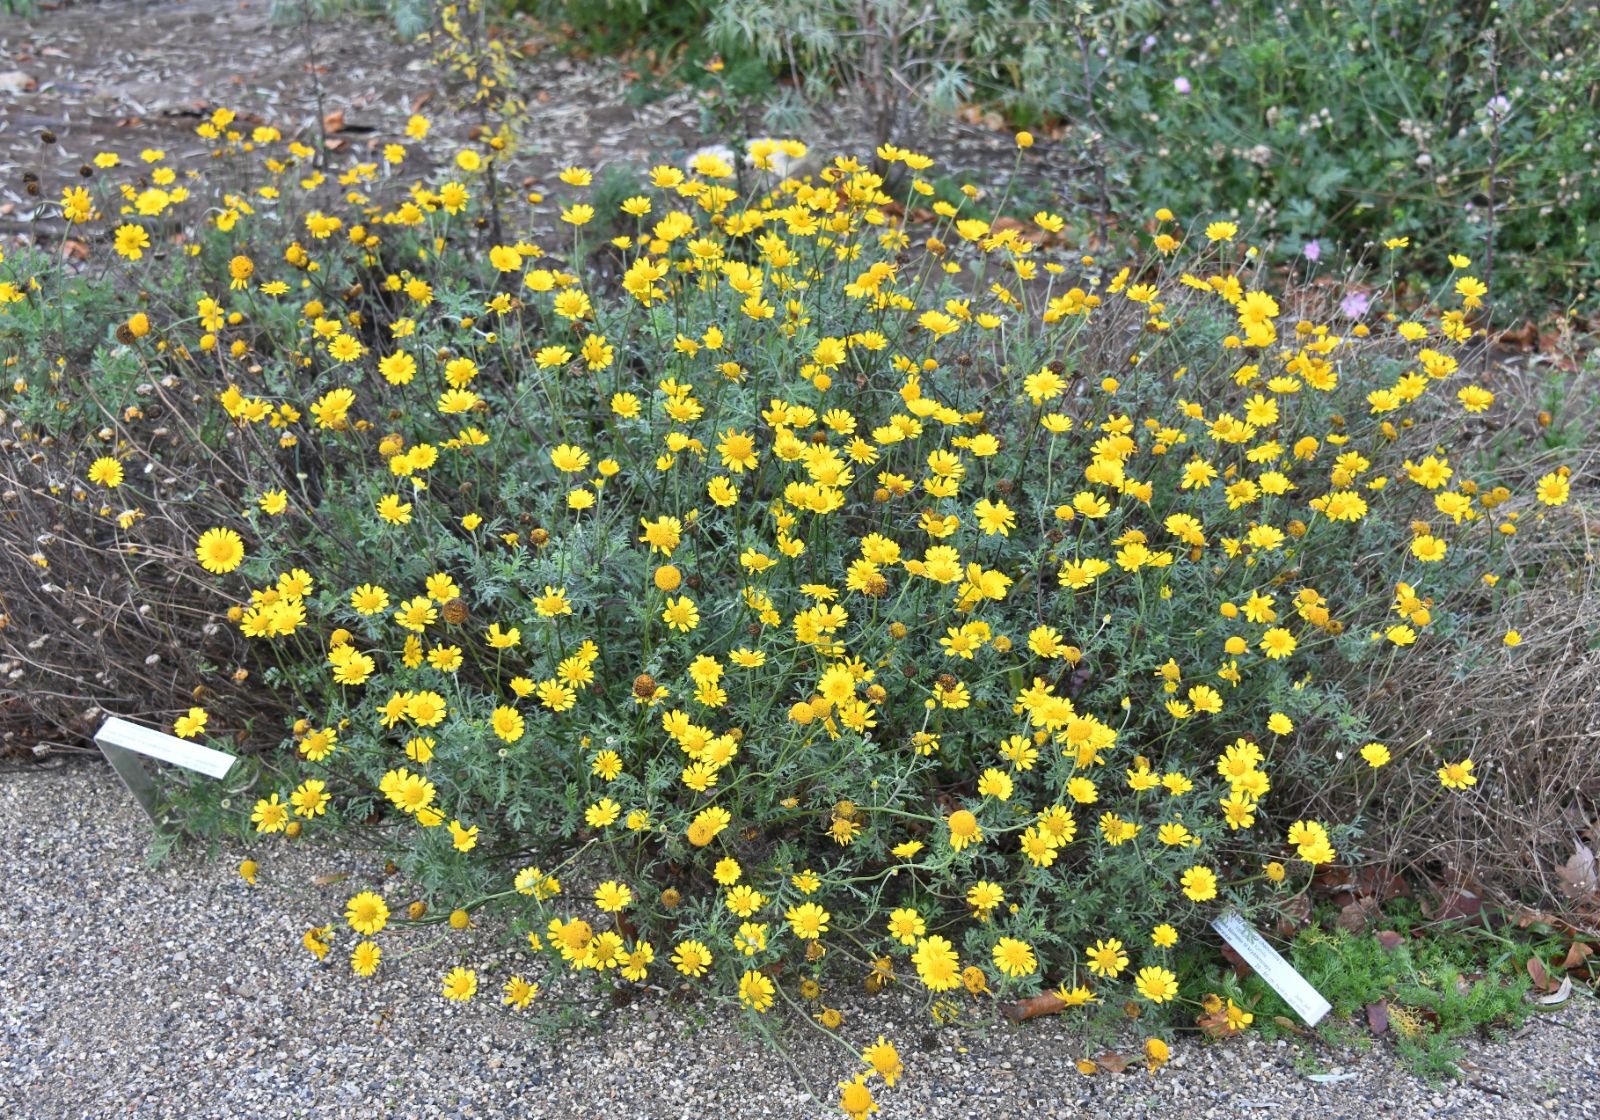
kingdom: Plantae
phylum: Tracheophyta
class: Magnoliopsida
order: Asterales
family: Asteraceae
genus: Cota
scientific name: Cota tinctoria
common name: Farve-gåseurt
